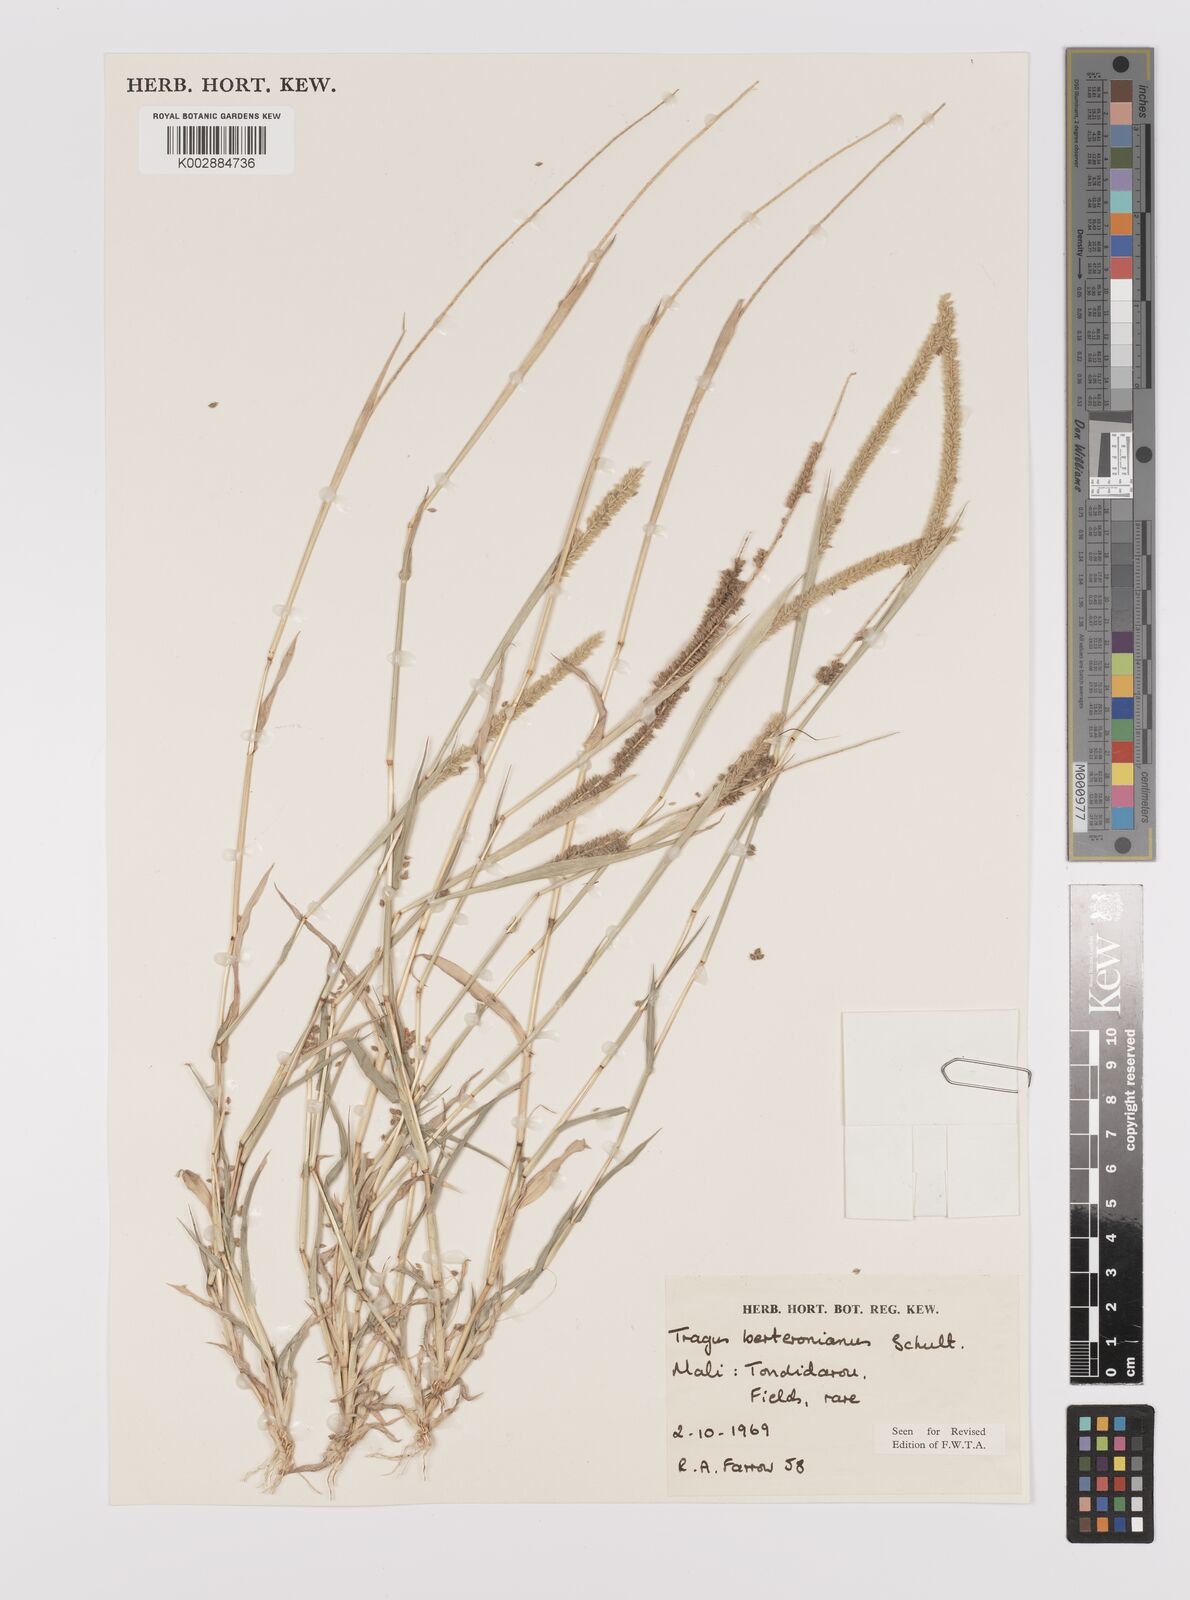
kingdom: Plantae
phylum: Tracheophyta
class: Liliopsida
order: Poales
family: Poaceae
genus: Tragus
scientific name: Tragus berteronianus
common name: African bur-grass
